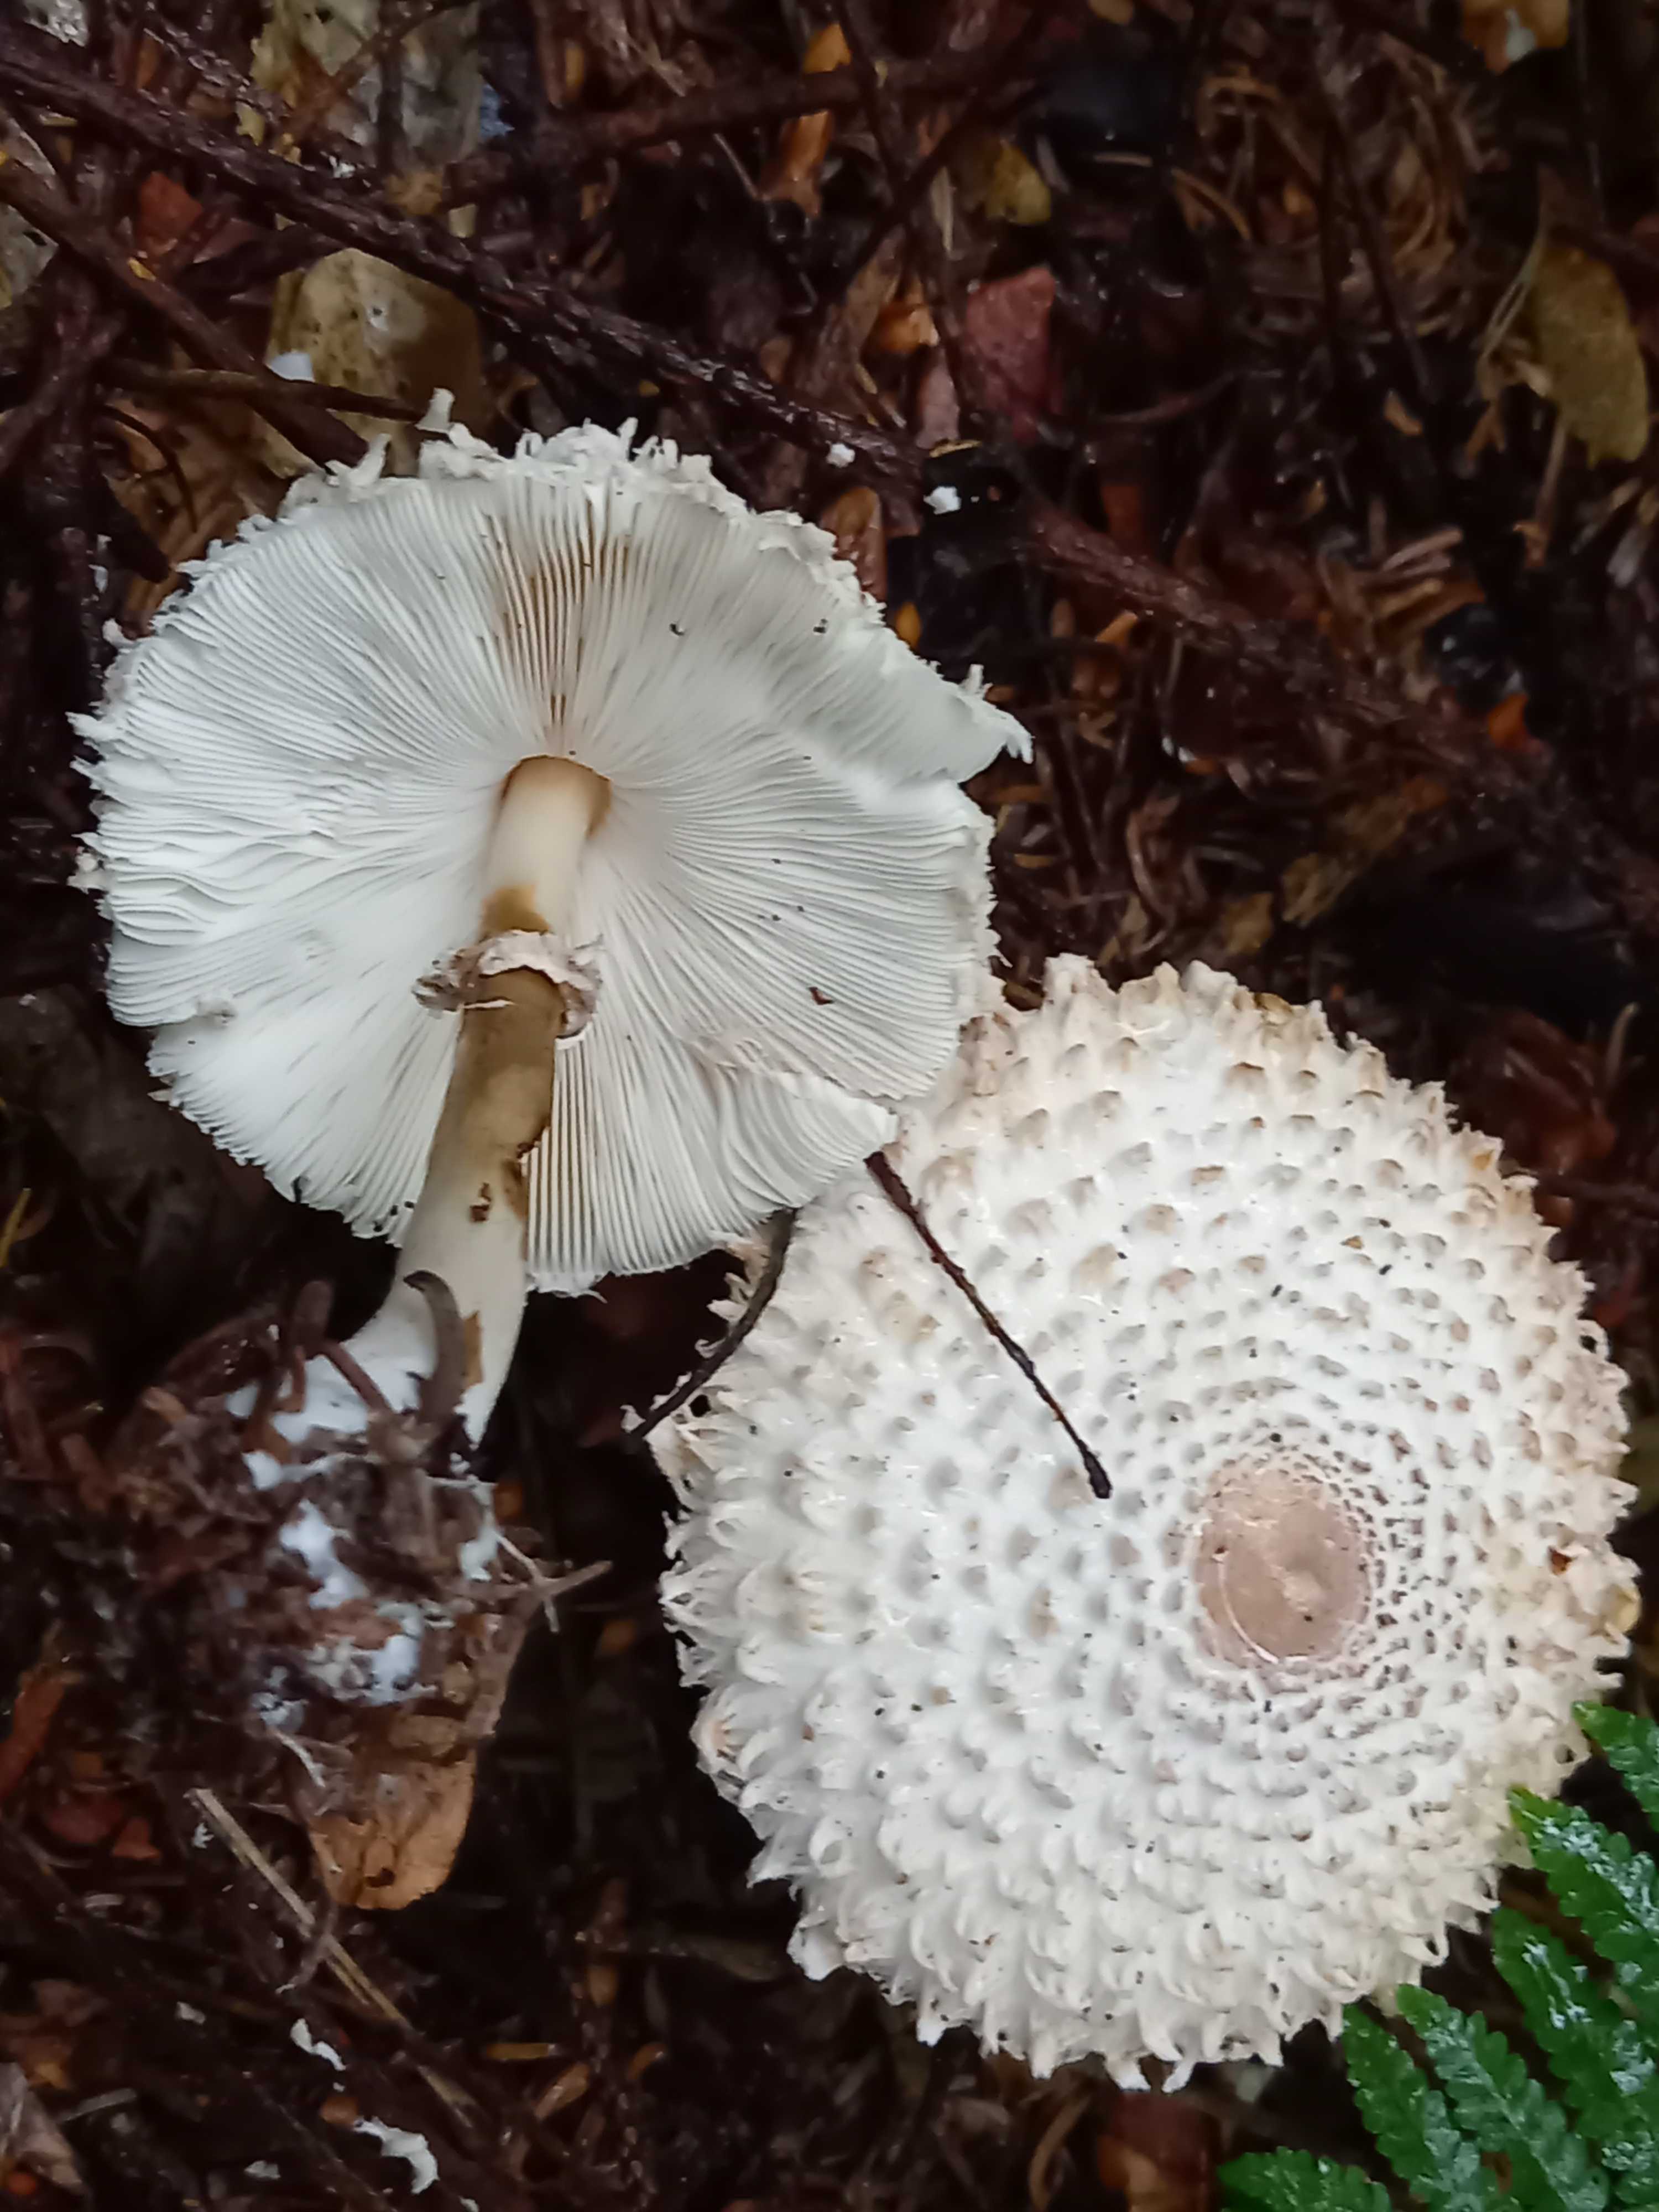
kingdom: Fungi
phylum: Basidiomycota
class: Agaricomycetes
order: Agaricales
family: Agaricaceae
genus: Leucoagaricus
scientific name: Leucoagaricus nympharum
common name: gran-silkehat
